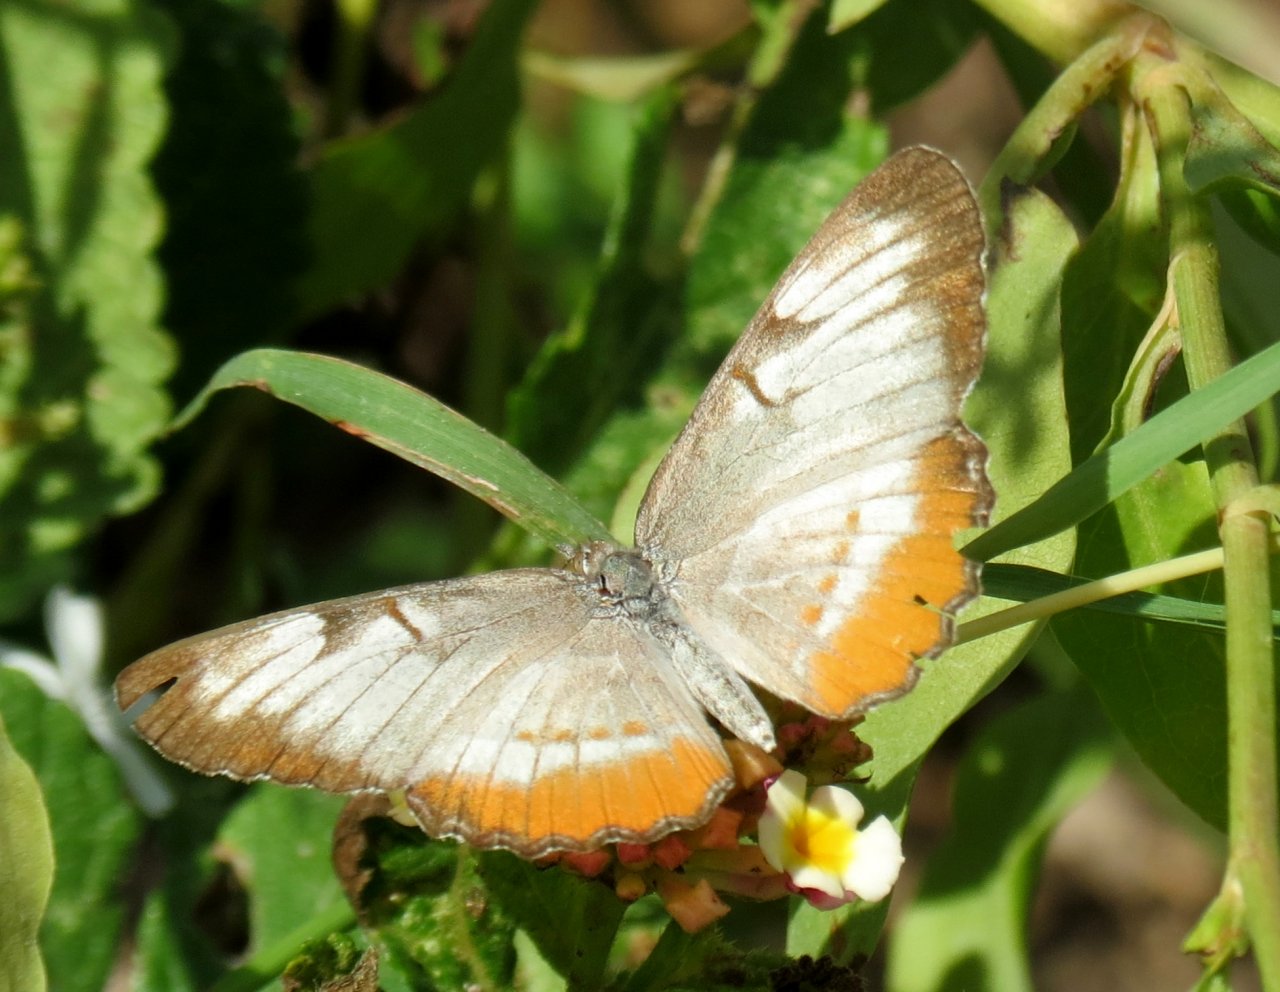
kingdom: Animalia
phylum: Arthropoda
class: Insecta
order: Lepidoptera
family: Nymphalidae
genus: Mestra
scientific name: Mestra amymone
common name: Common Mestra
